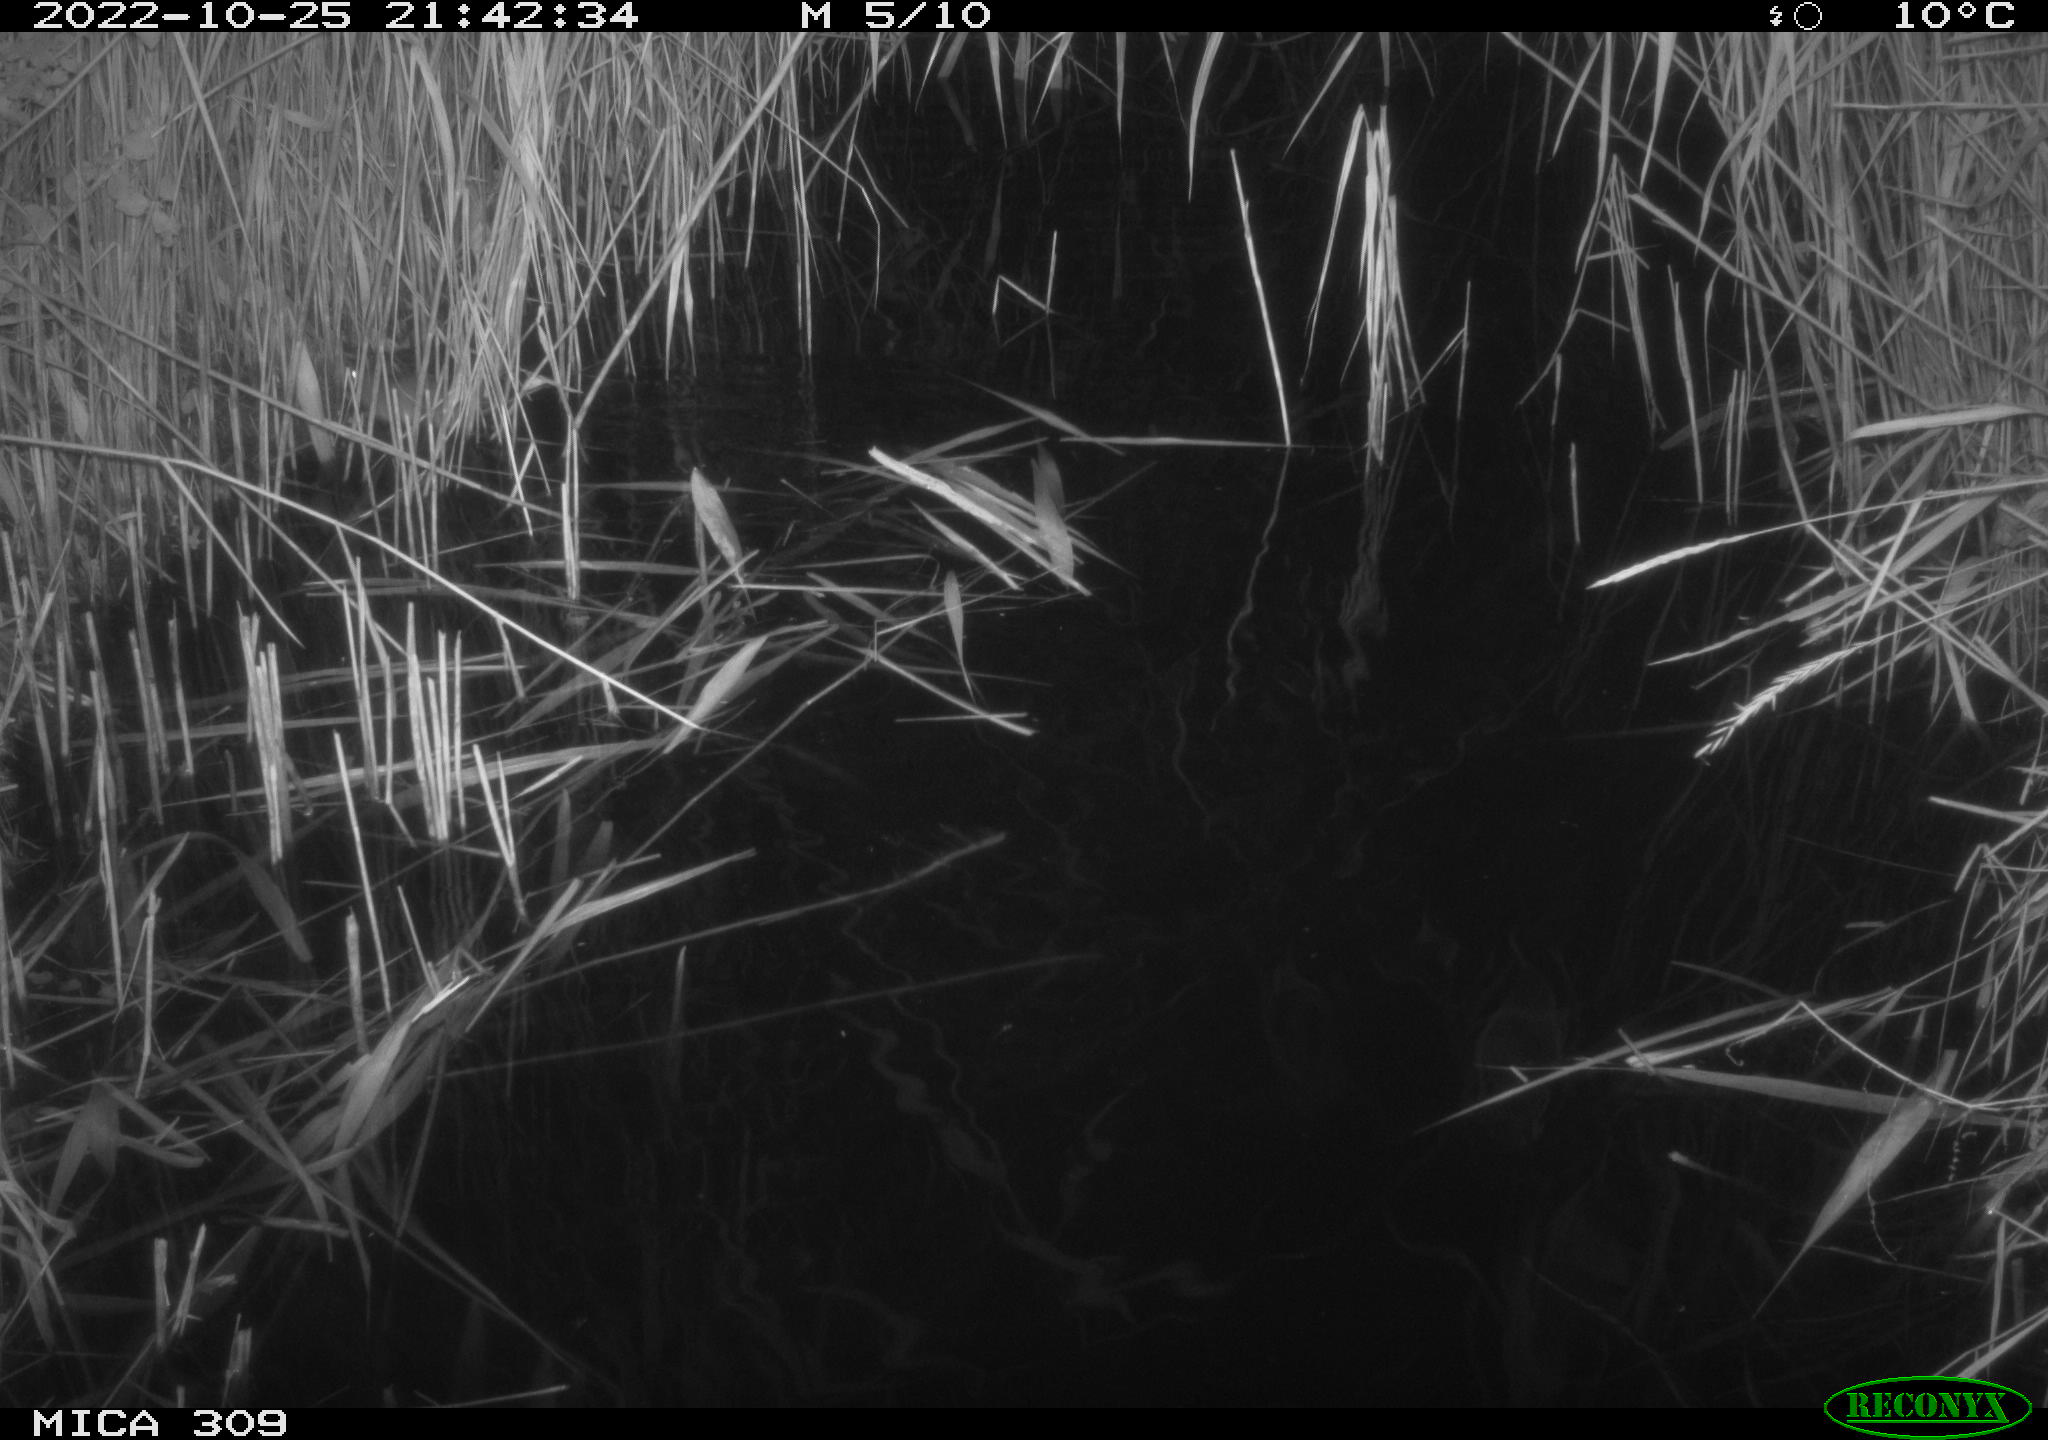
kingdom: Animalia
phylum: Chordata
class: Mammalia
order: Rodentia
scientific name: Rodentia
